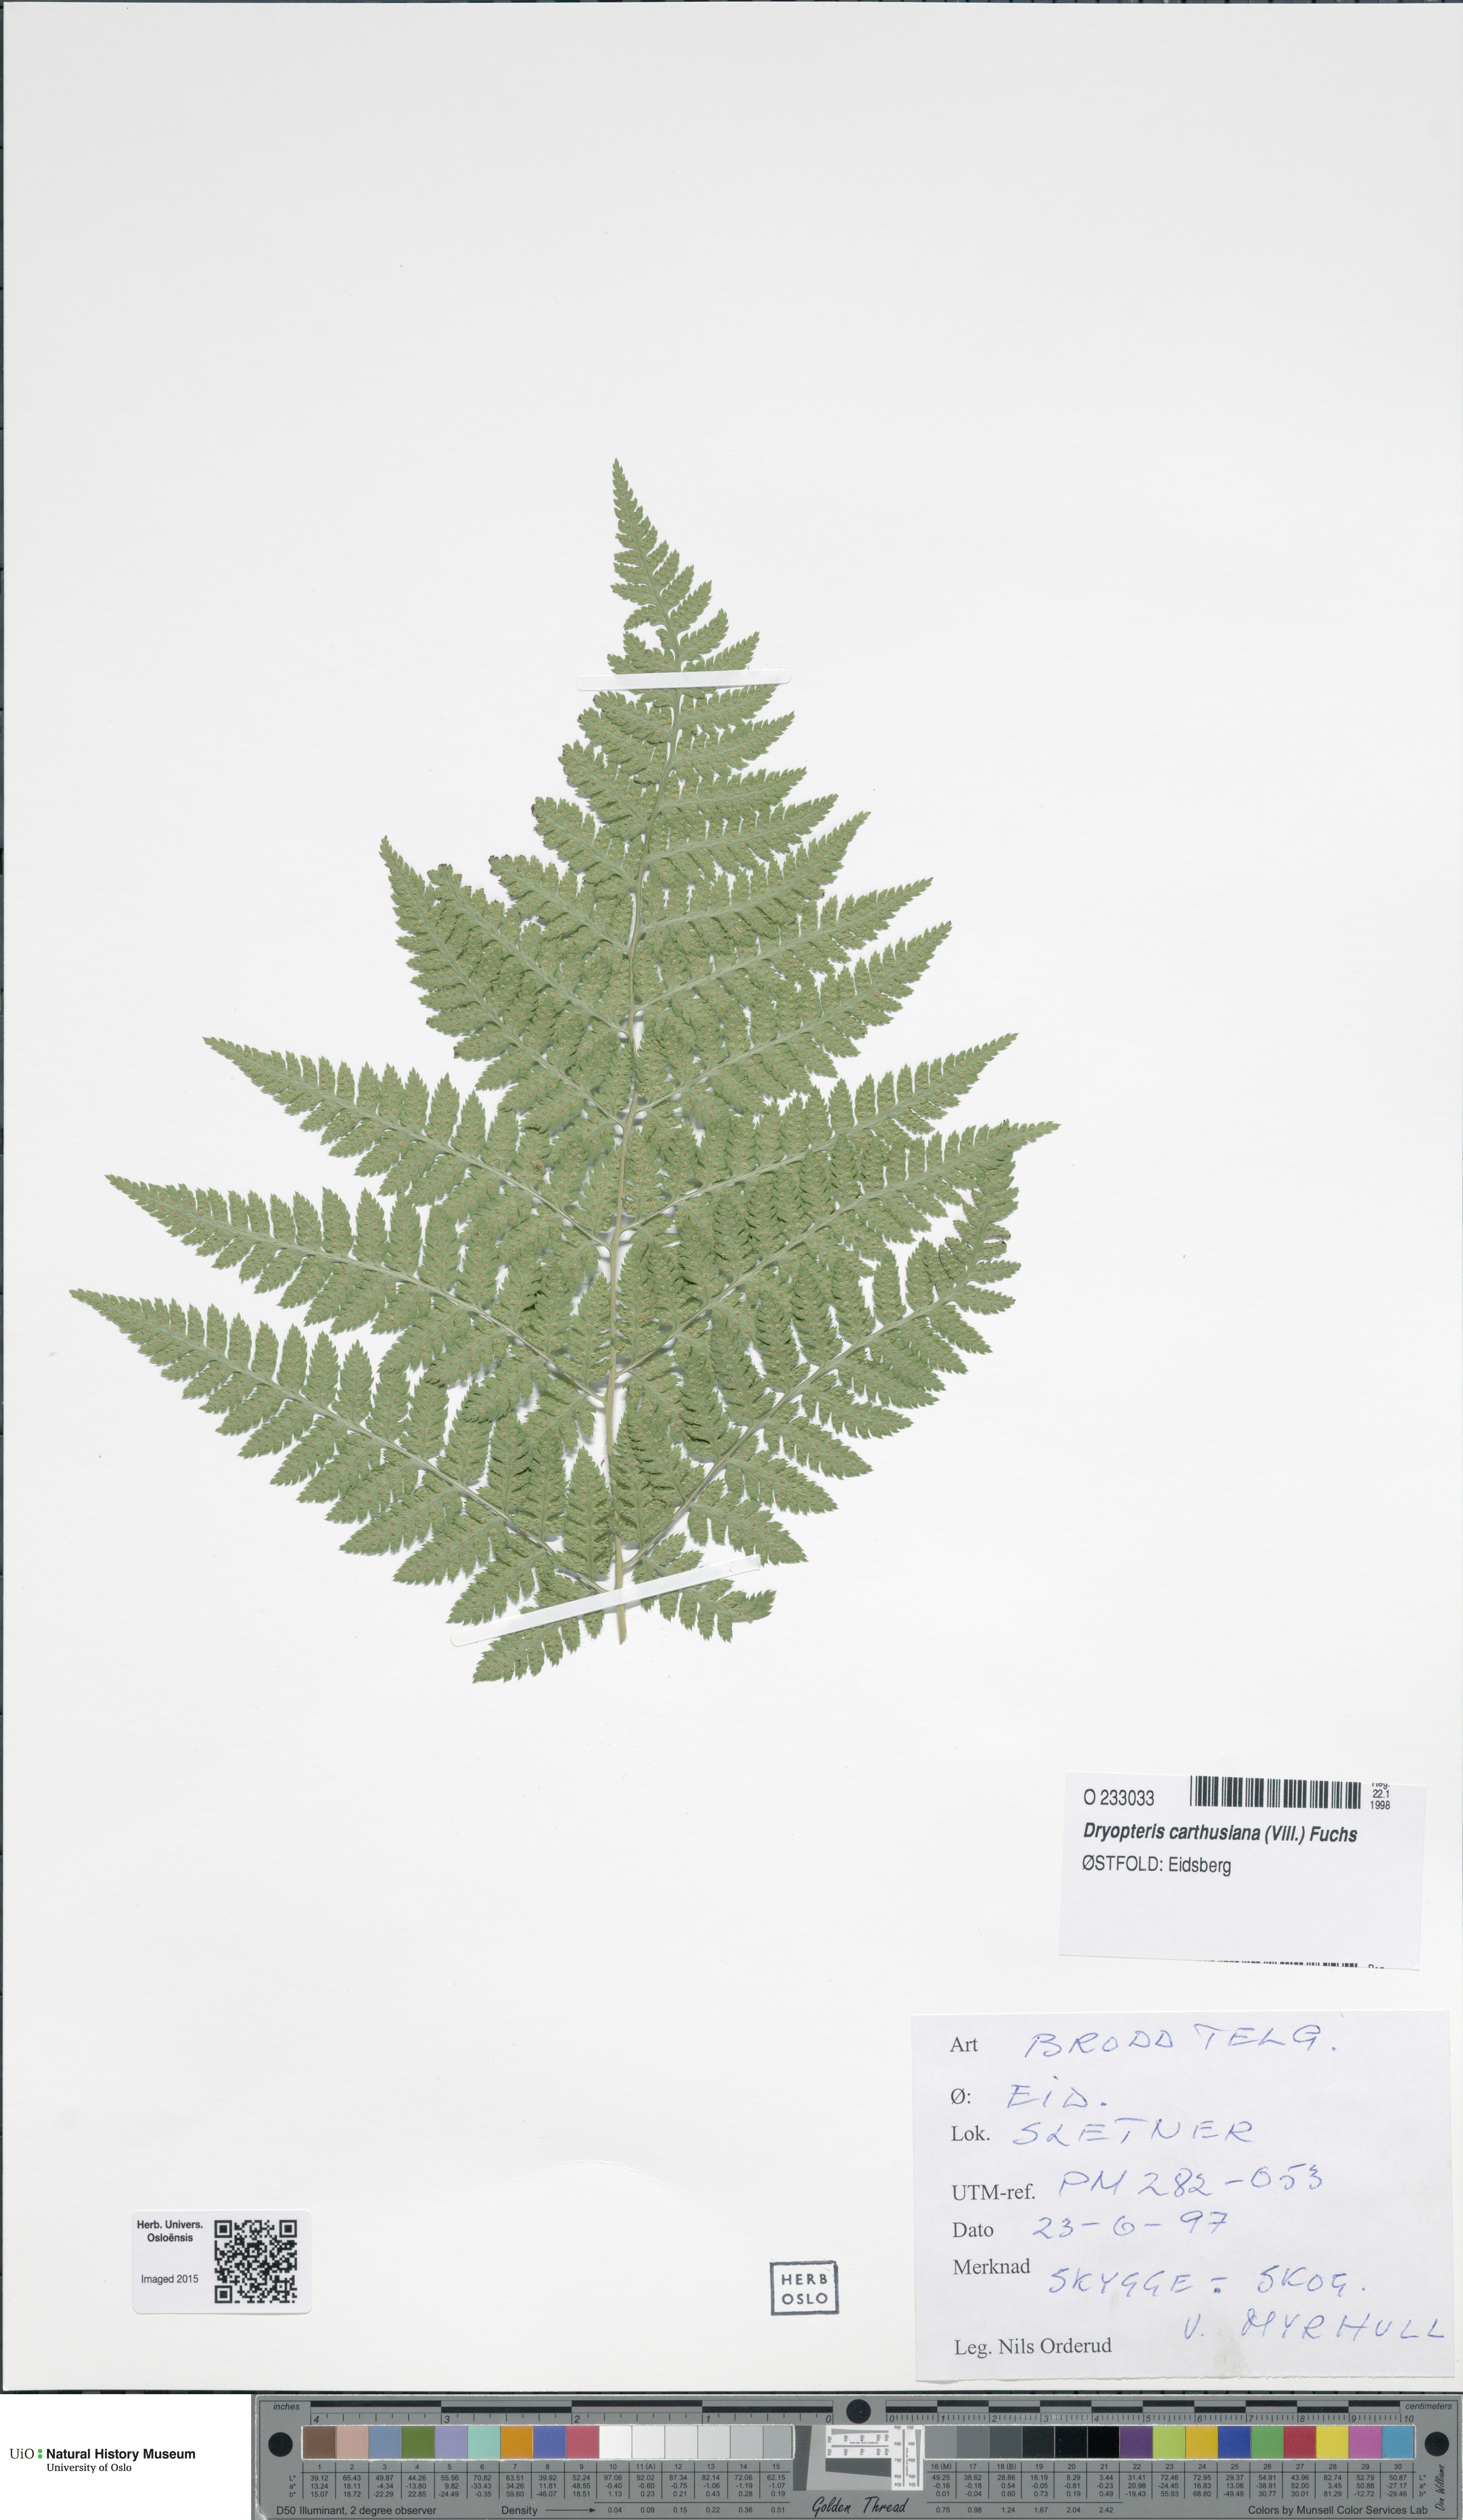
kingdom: Plantae
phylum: Tracheophyta
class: Polypodiopsida
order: Polypodiales
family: Dryopteridaceae
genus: Dryopteris
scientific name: Dryopteris carthusiana
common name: Narrow buckler-fern
